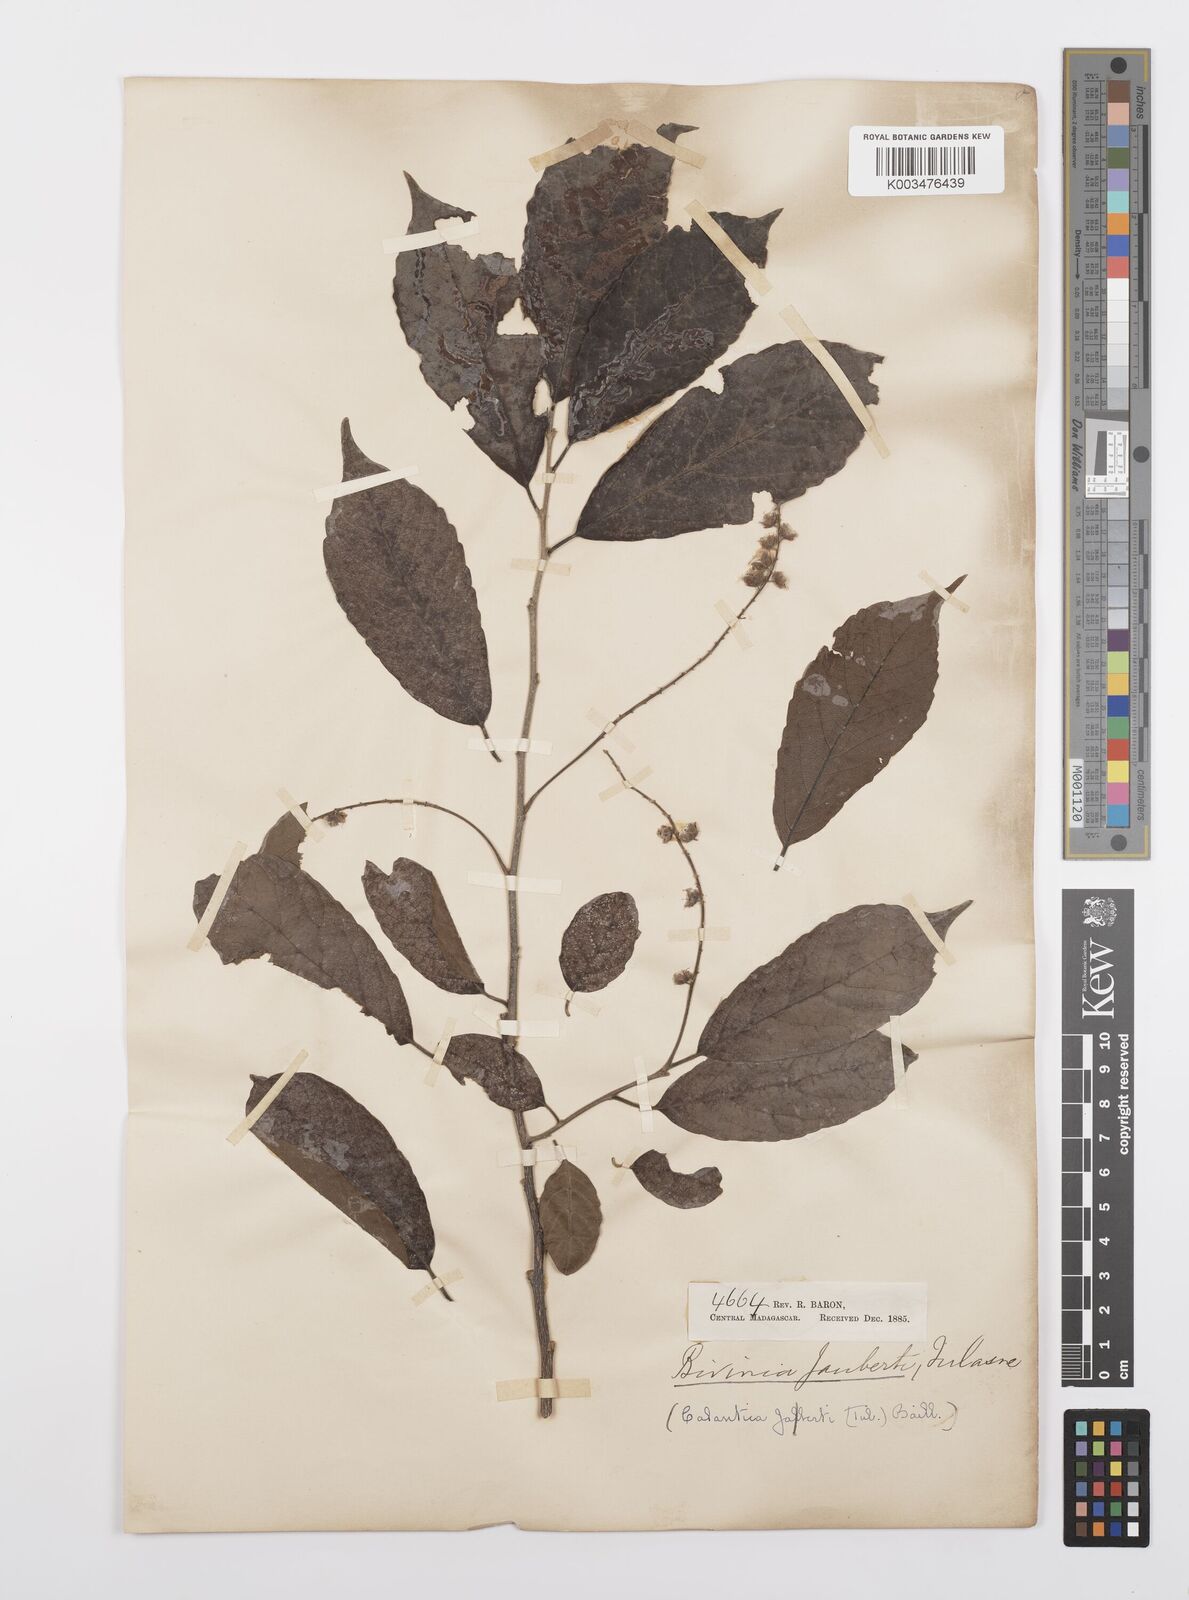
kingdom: Plantae
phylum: Tracheophyta
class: Magnoliopsida
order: Malpighiales
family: Salicaceae
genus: Bivinia
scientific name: Bivinia jalbertii
